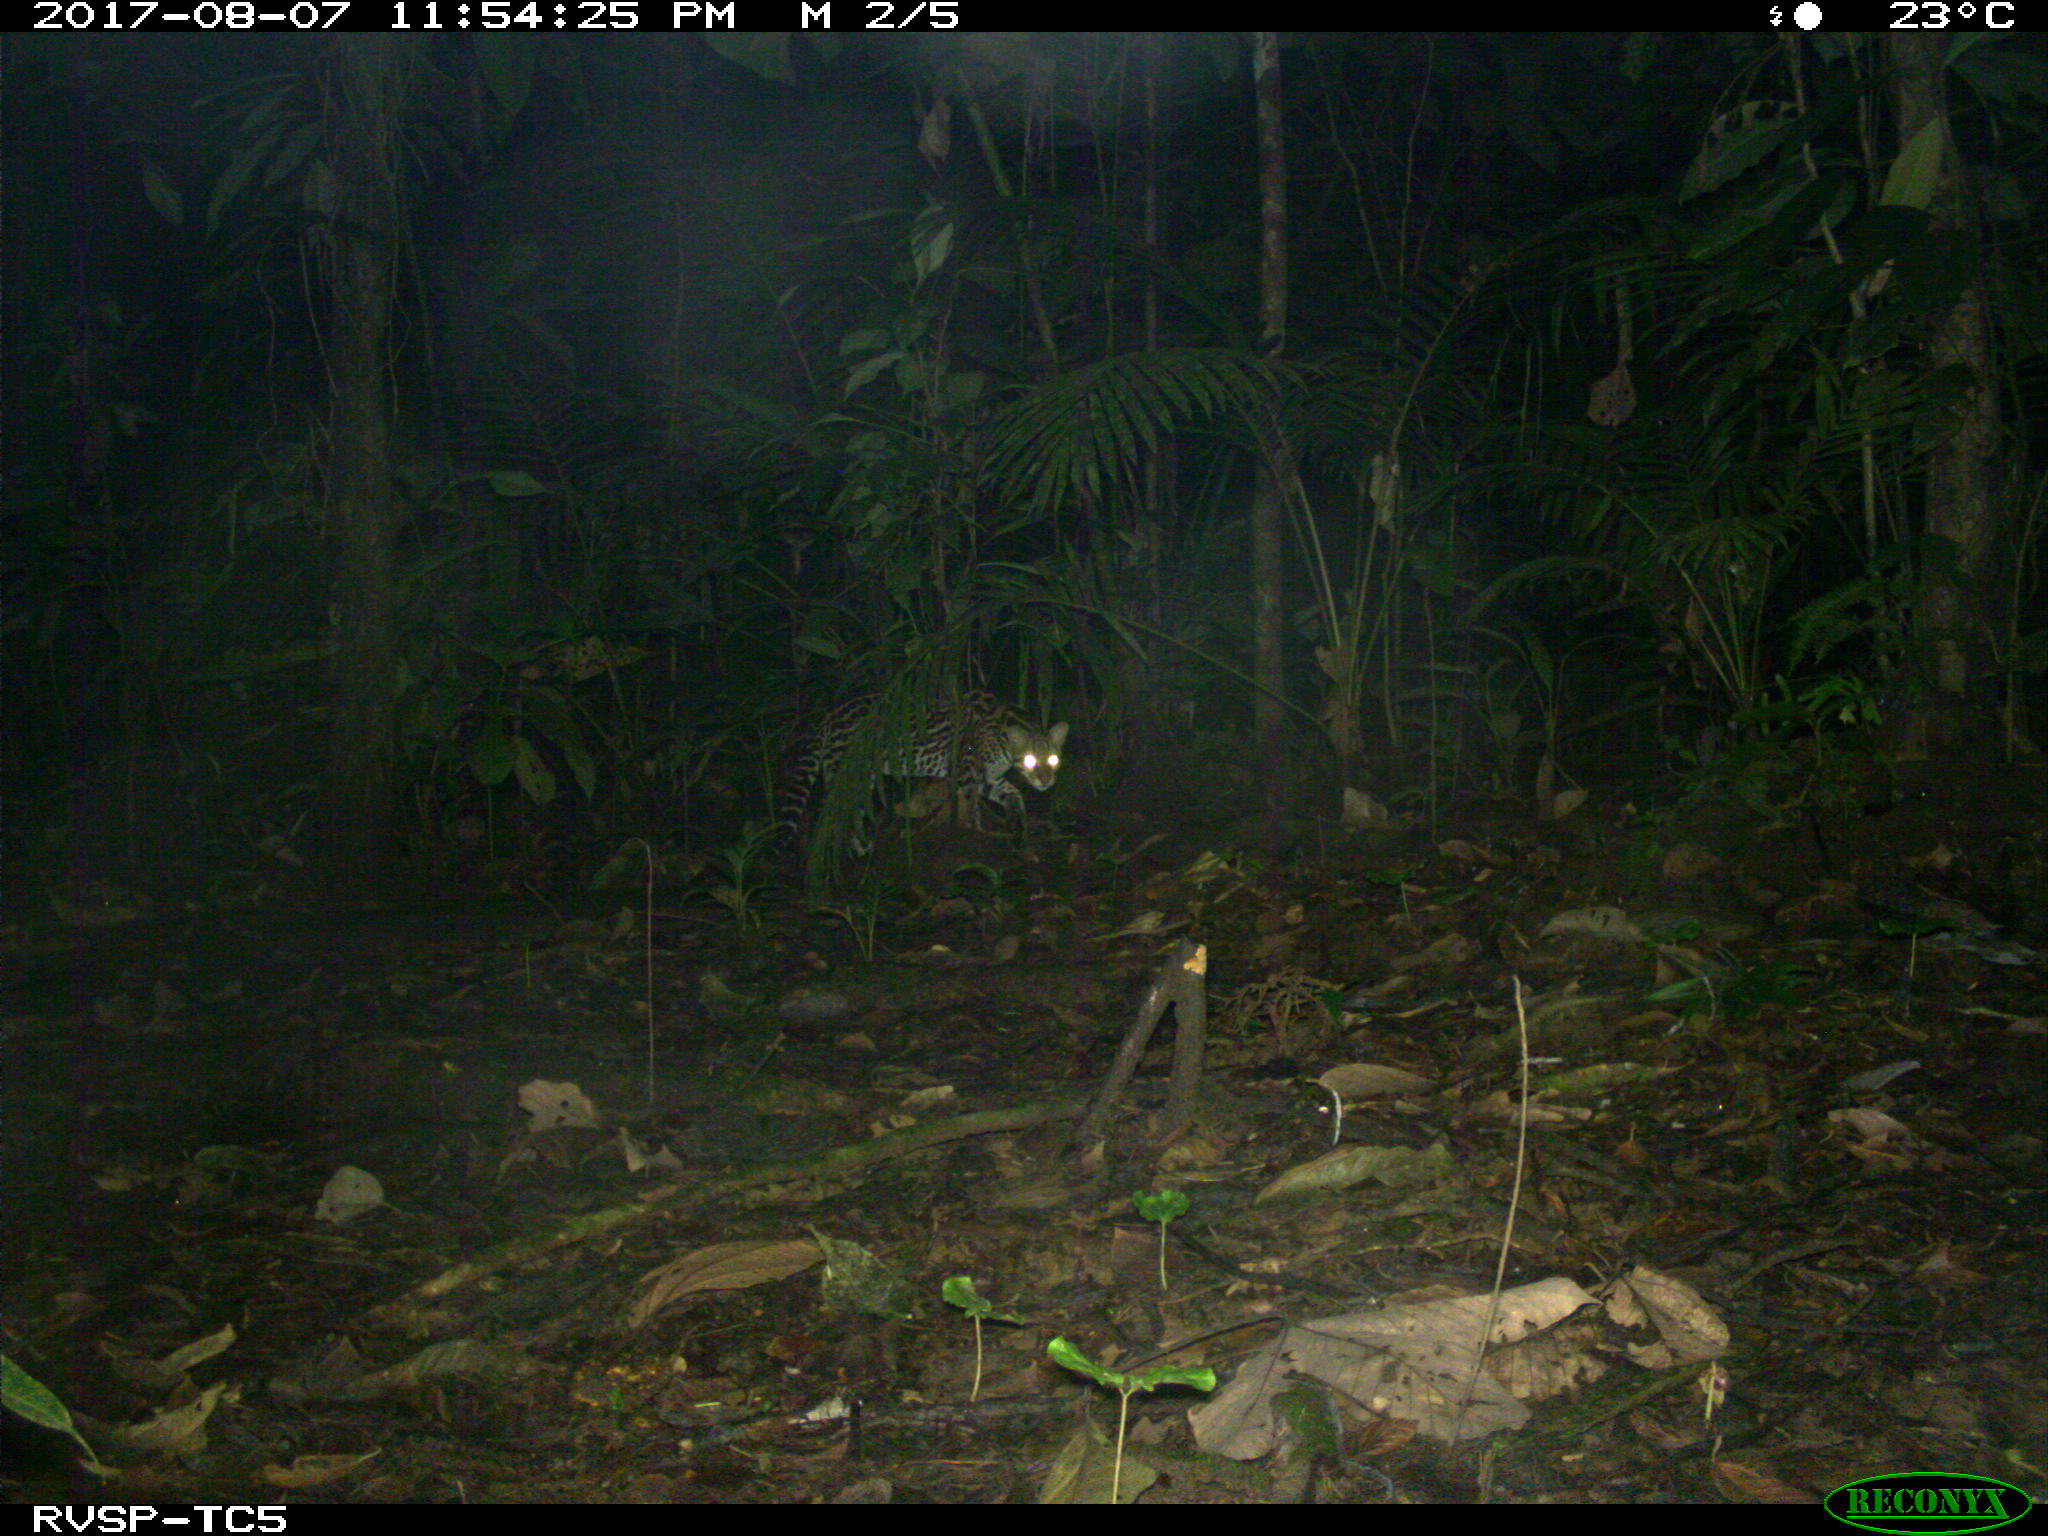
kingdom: Animalia
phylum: Chordata
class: Mammalia
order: Carnivora
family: Felidae
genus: Leopardus
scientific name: Leopardus pardalis
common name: Ocelot
